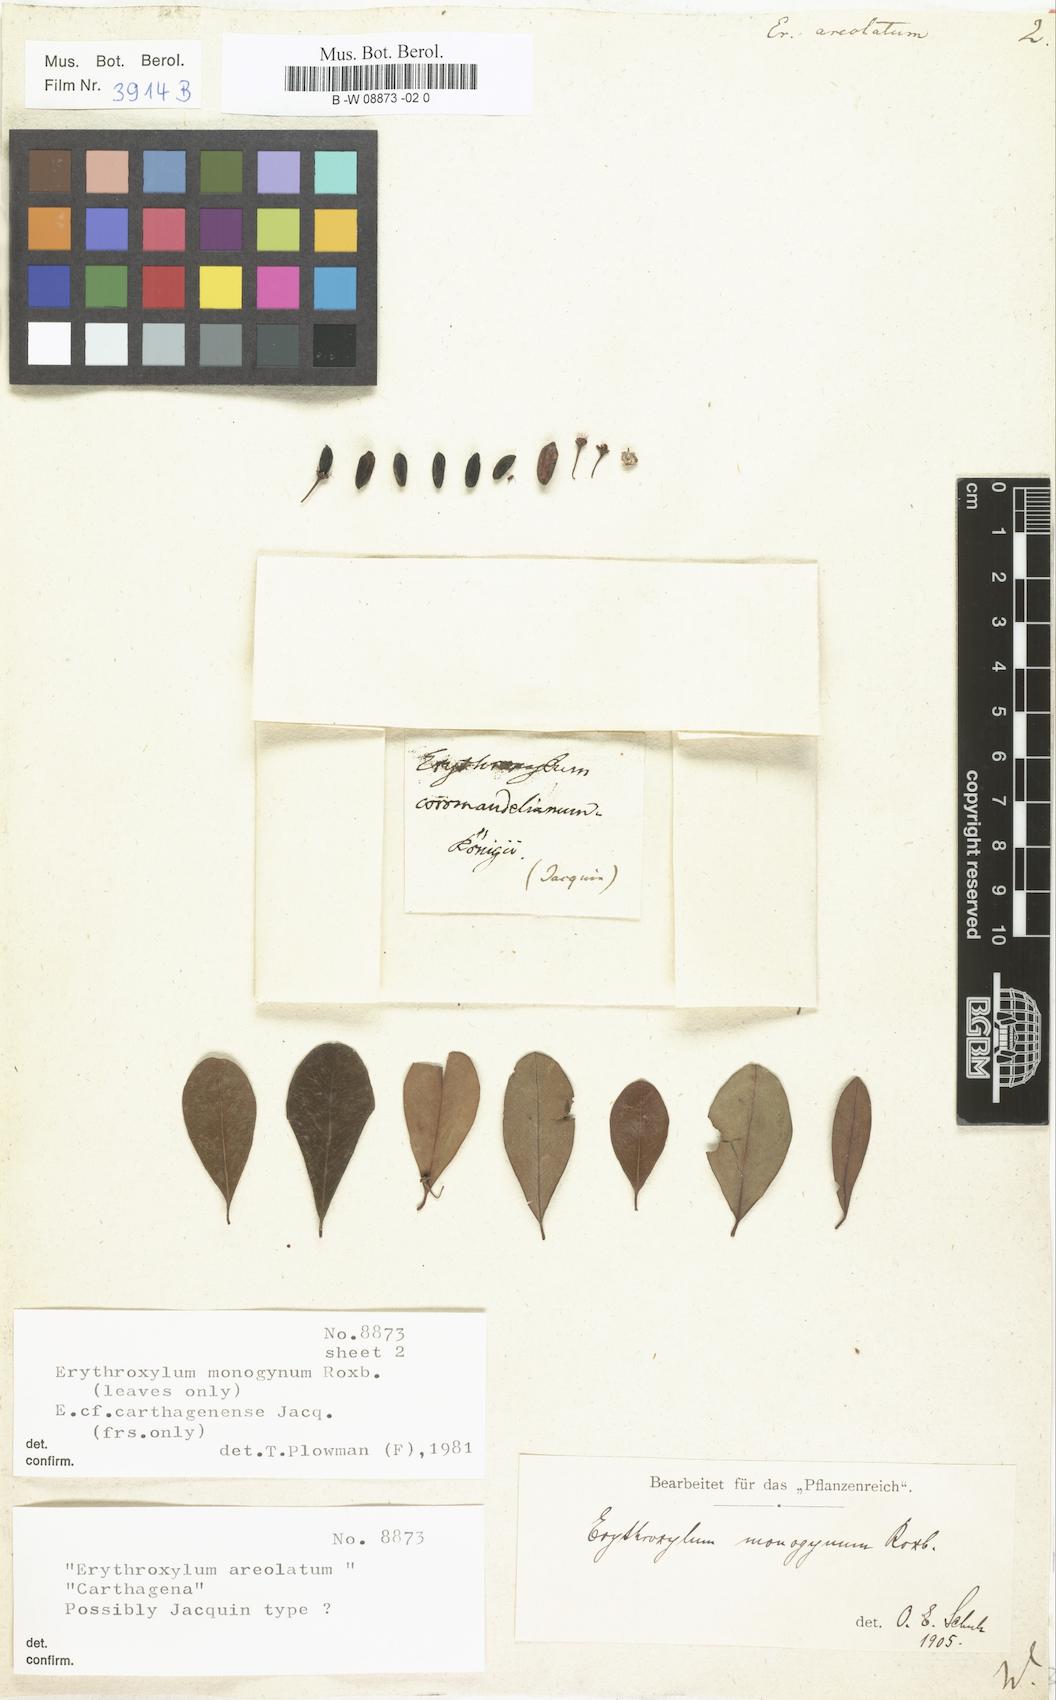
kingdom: Plantae
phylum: Tracheophyta
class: Magnoliopsida
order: Malpighiales
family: Erythroxylaceae
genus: Erythroxylum
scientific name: Erythroxylum Erythroxylon areolatum
